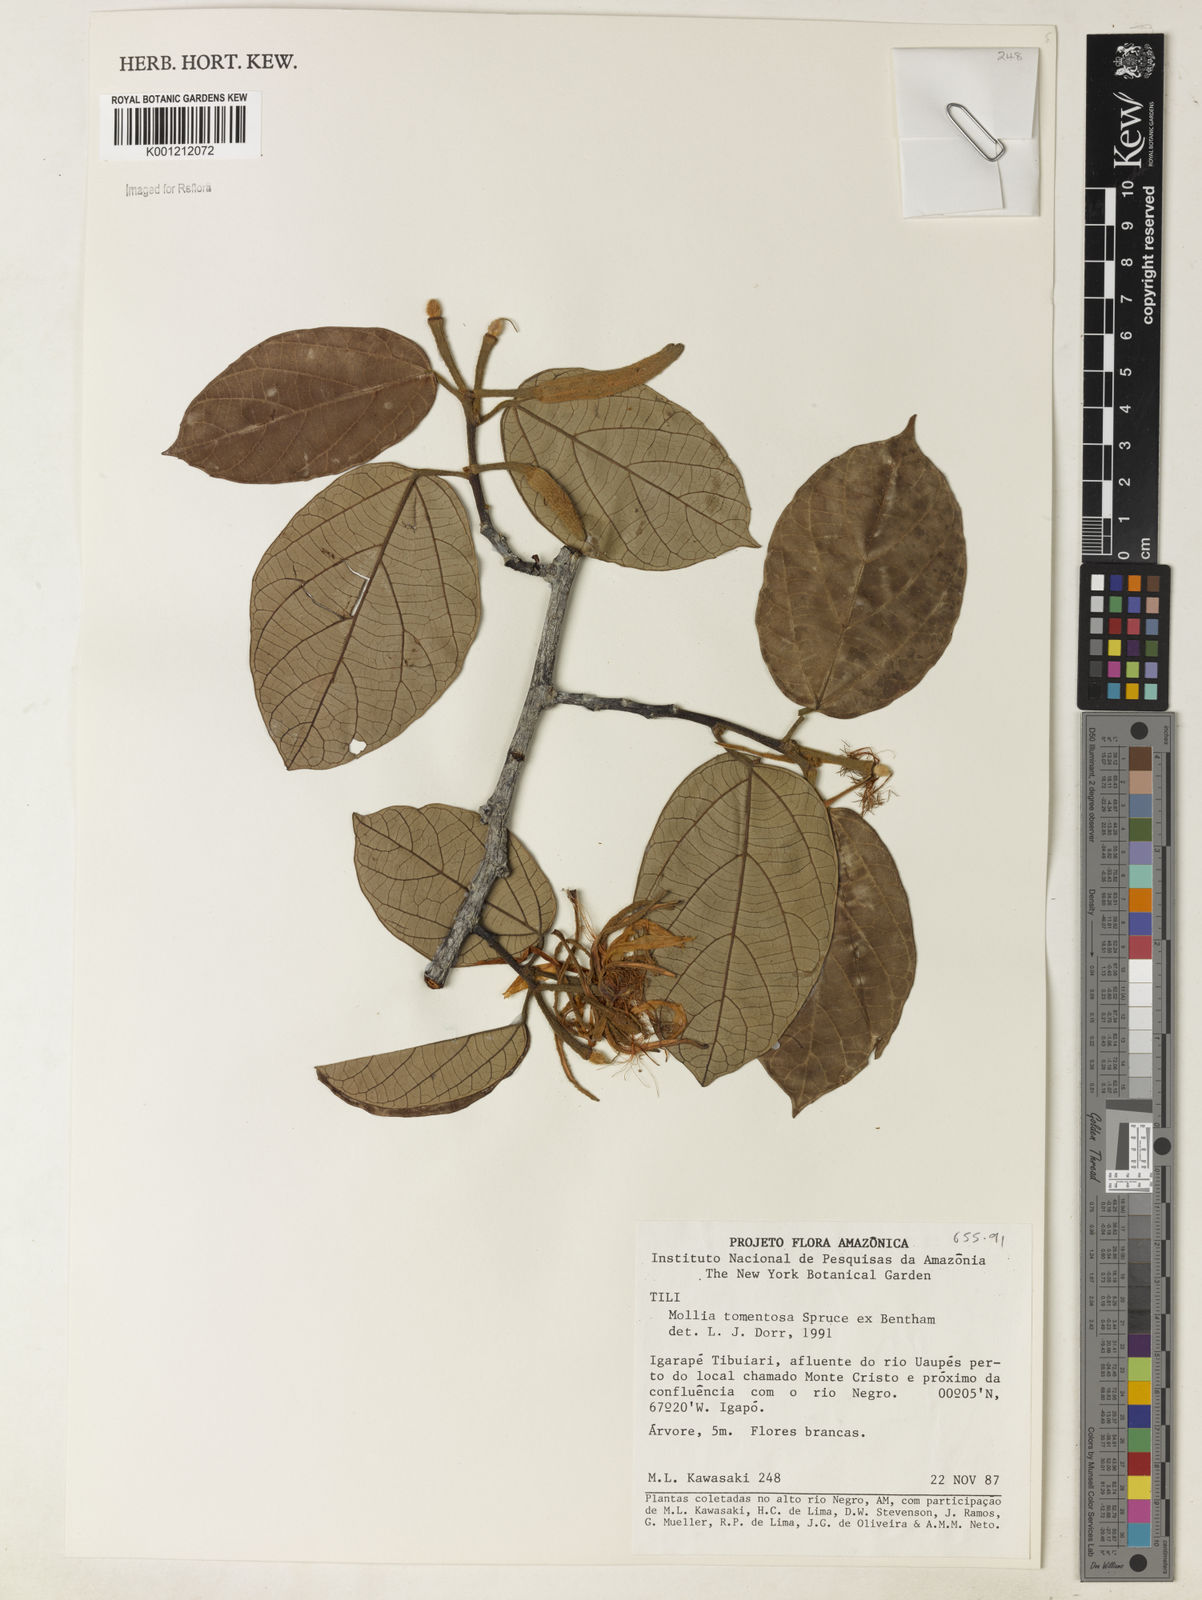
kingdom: Plantae
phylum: Tracheophyta
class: Magnoliopsida
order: Malvales
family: Malvaceae
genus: Mollia
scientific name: Mollia tomentosa
